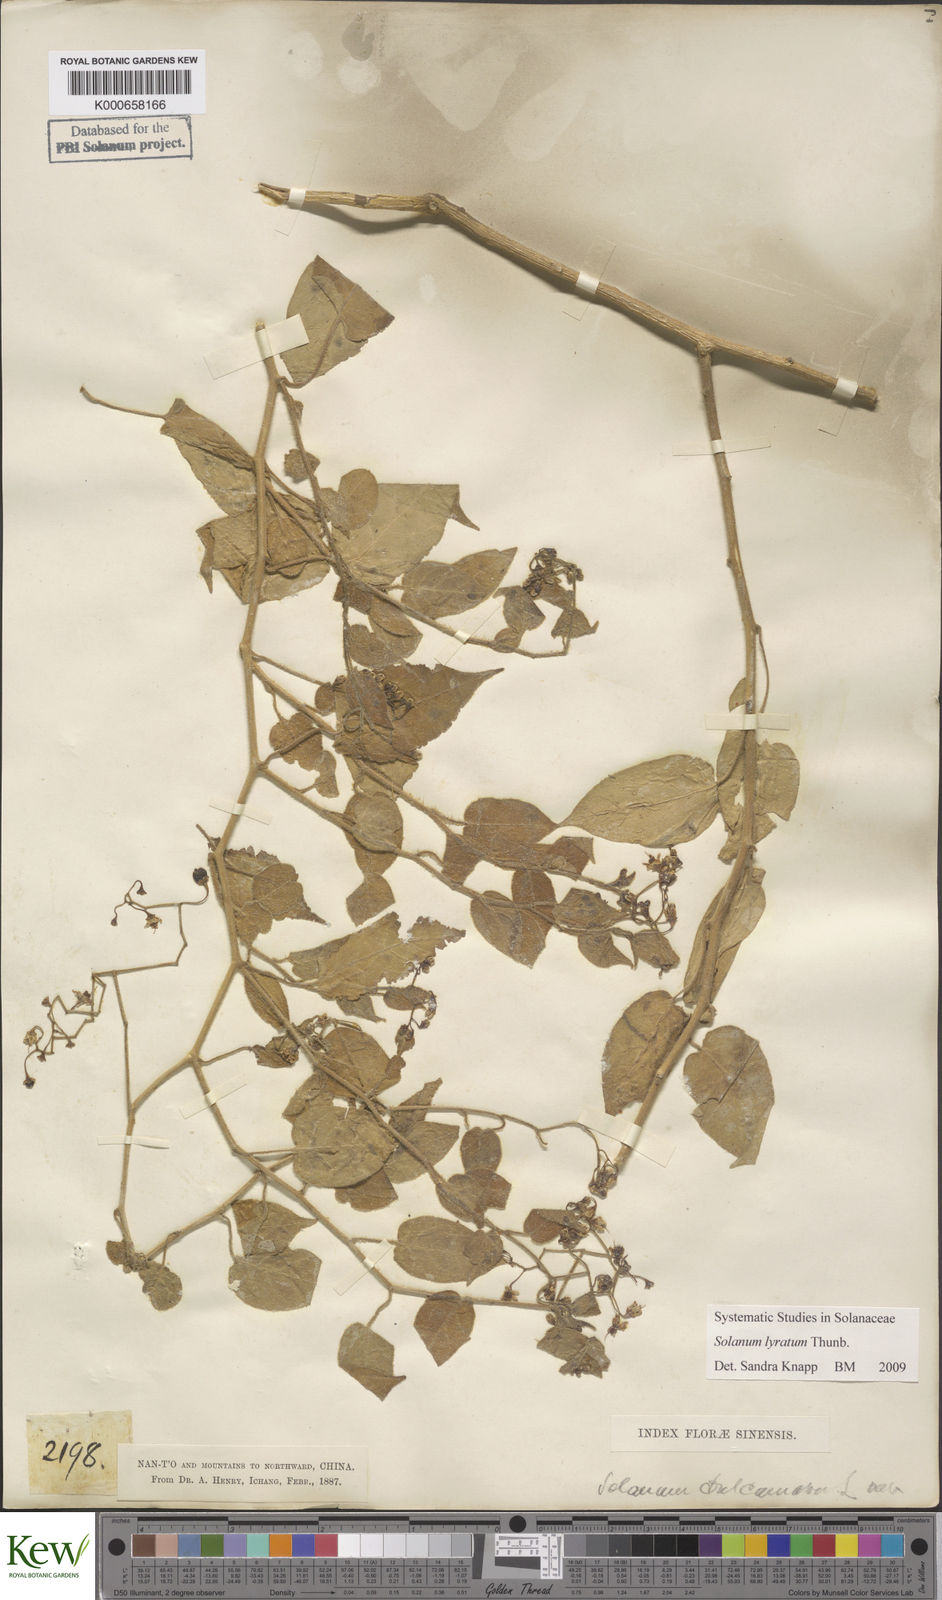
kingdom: Plantae
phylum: Tracheophyta
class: Magnoliopsida
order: Solanales
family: Solanaceae
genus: Solanum
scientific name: Solanum lyratum
